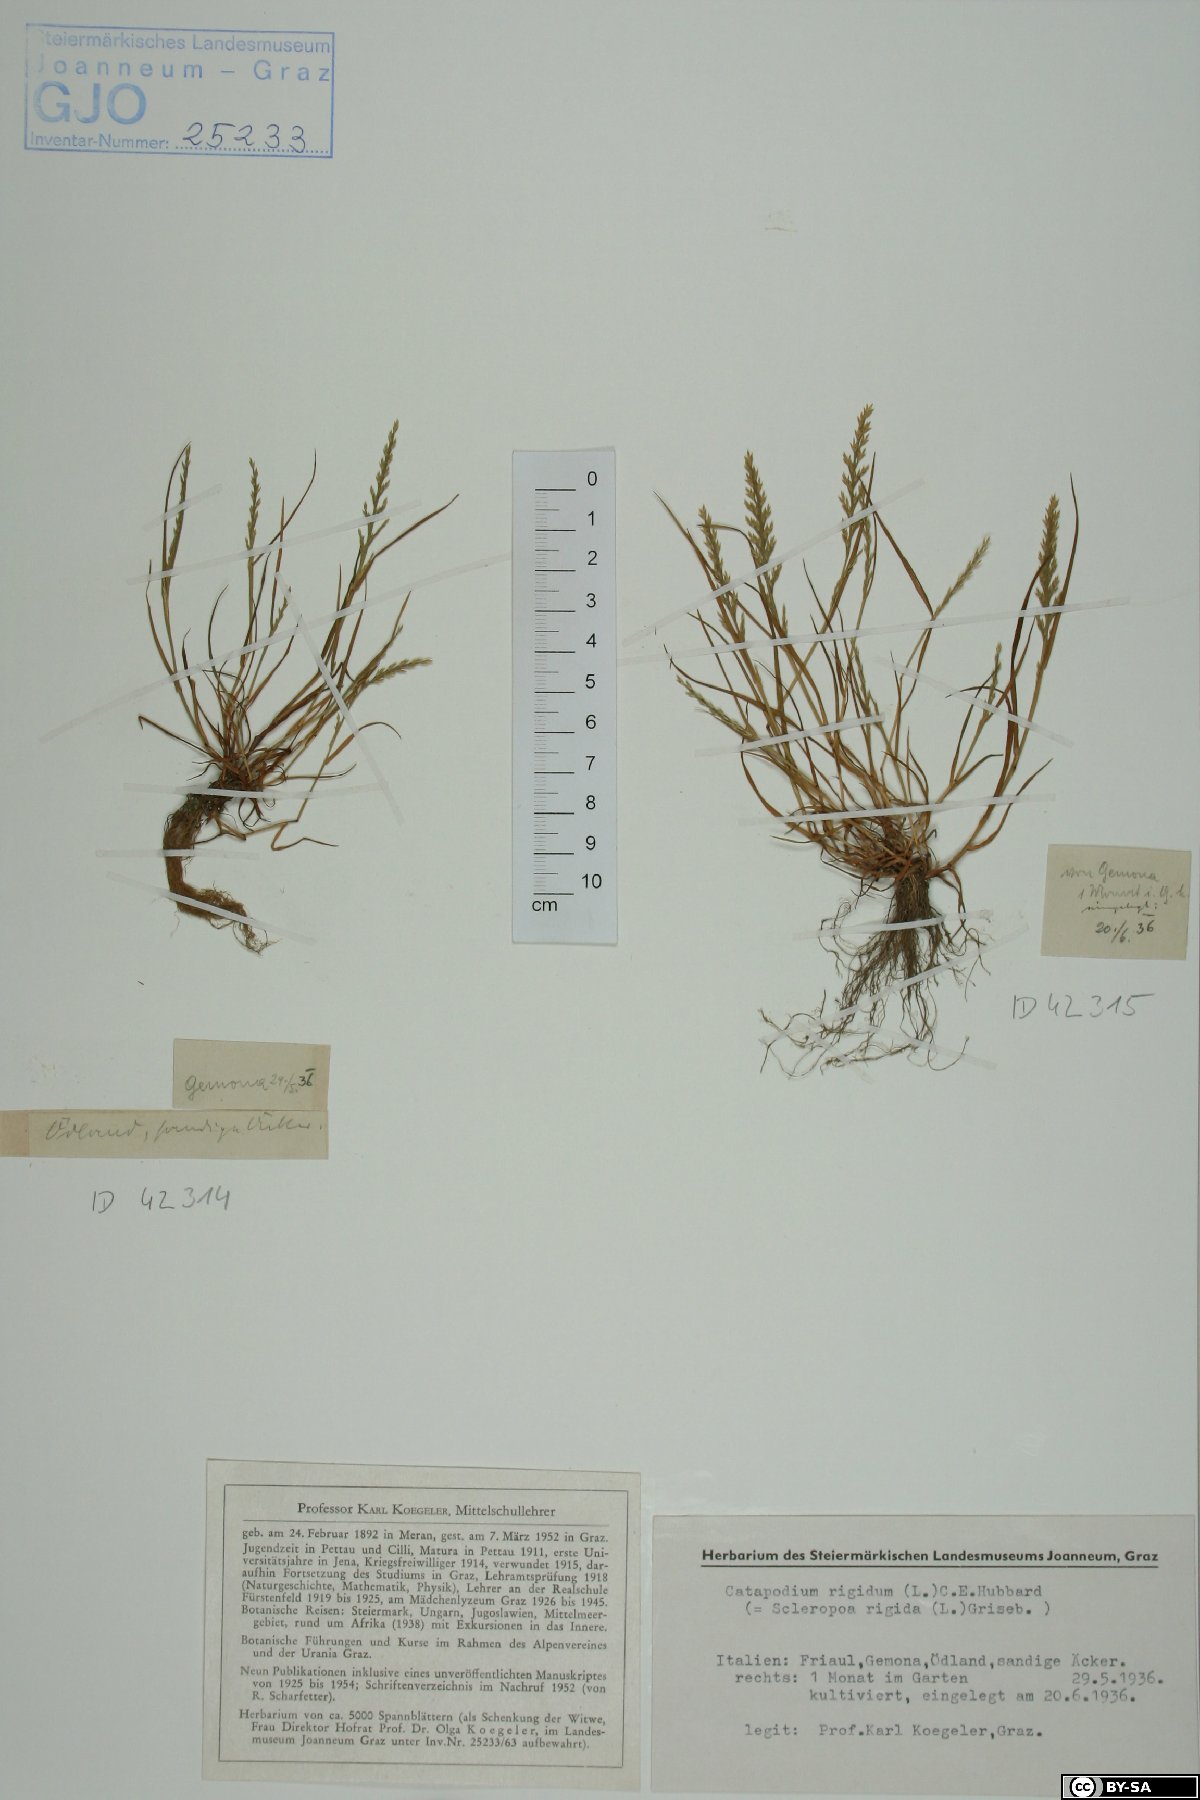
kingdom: Plantae
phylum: Tracheophyta
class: Liliopsida
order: Poales
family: Poaceae
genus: Catapodium
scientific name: Catapodium rigidum
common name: Fern-grass
